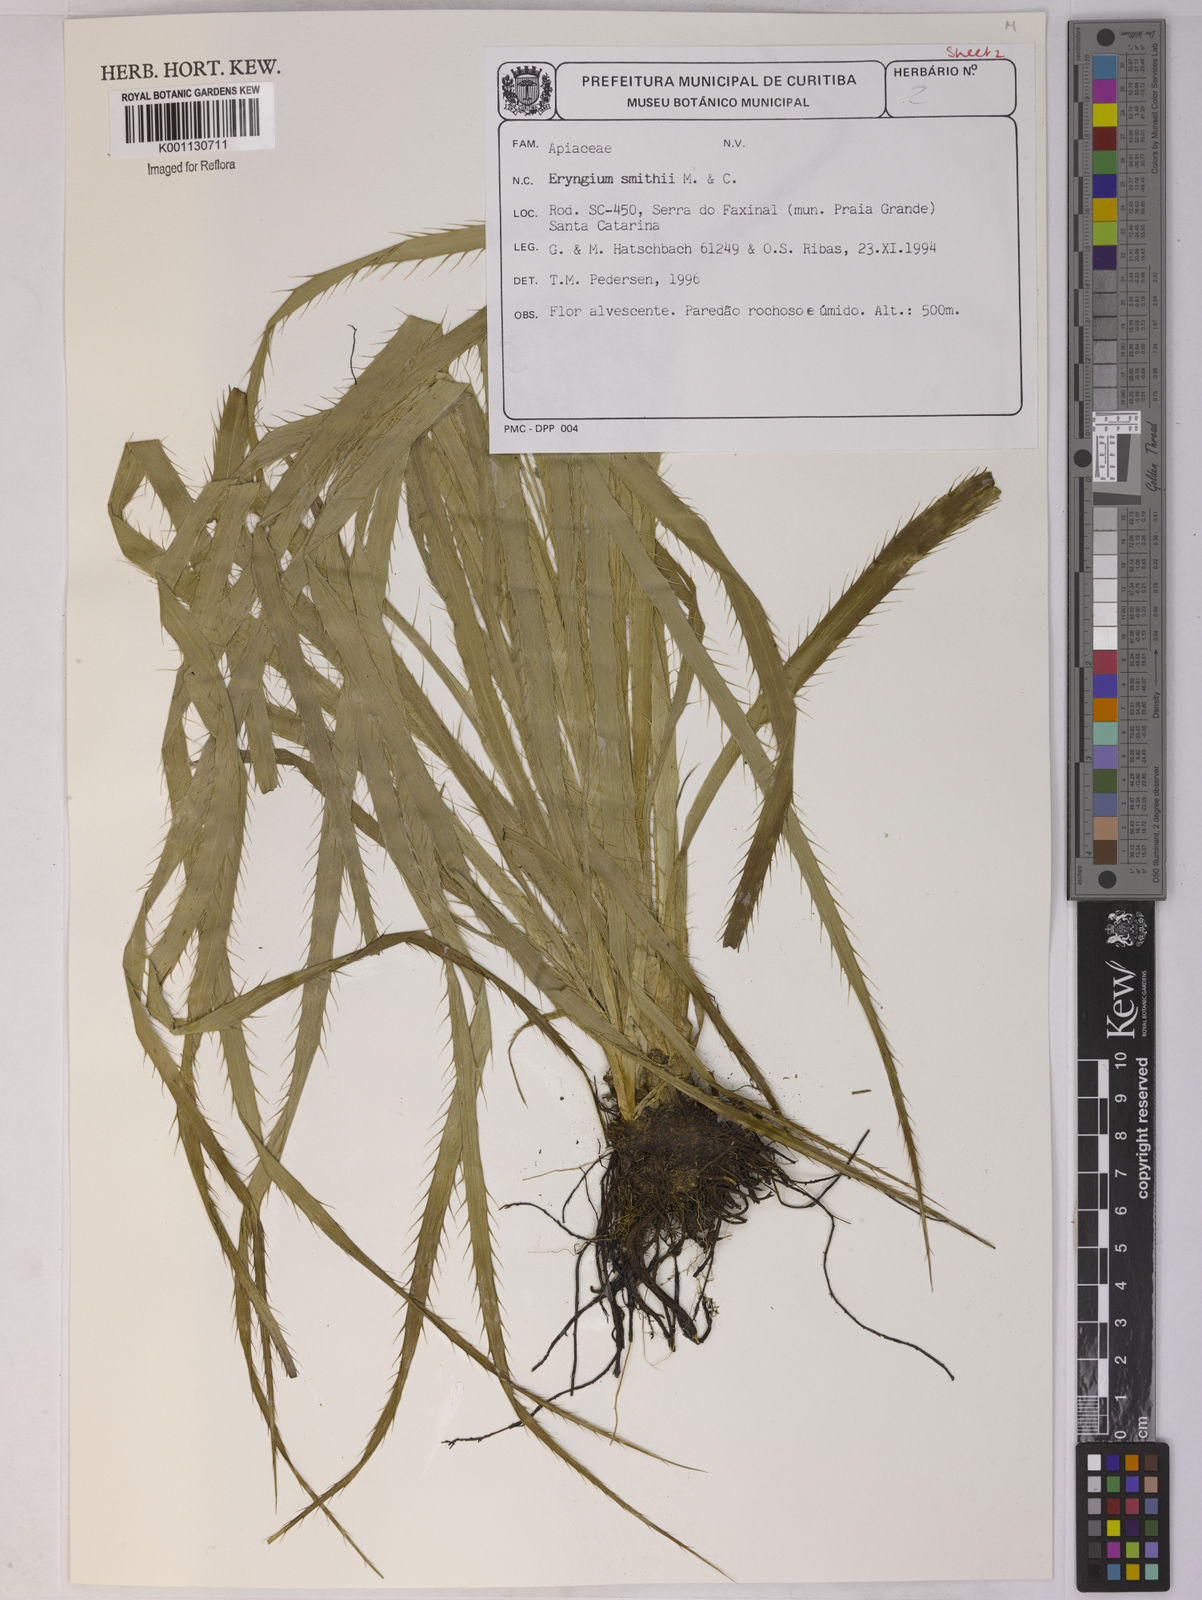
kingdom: Plantae
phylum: Tracheophyta
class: Magnoliopsida
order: Apiales
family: Apiaceae
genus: Eryngium
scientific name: Eryngium smithii
